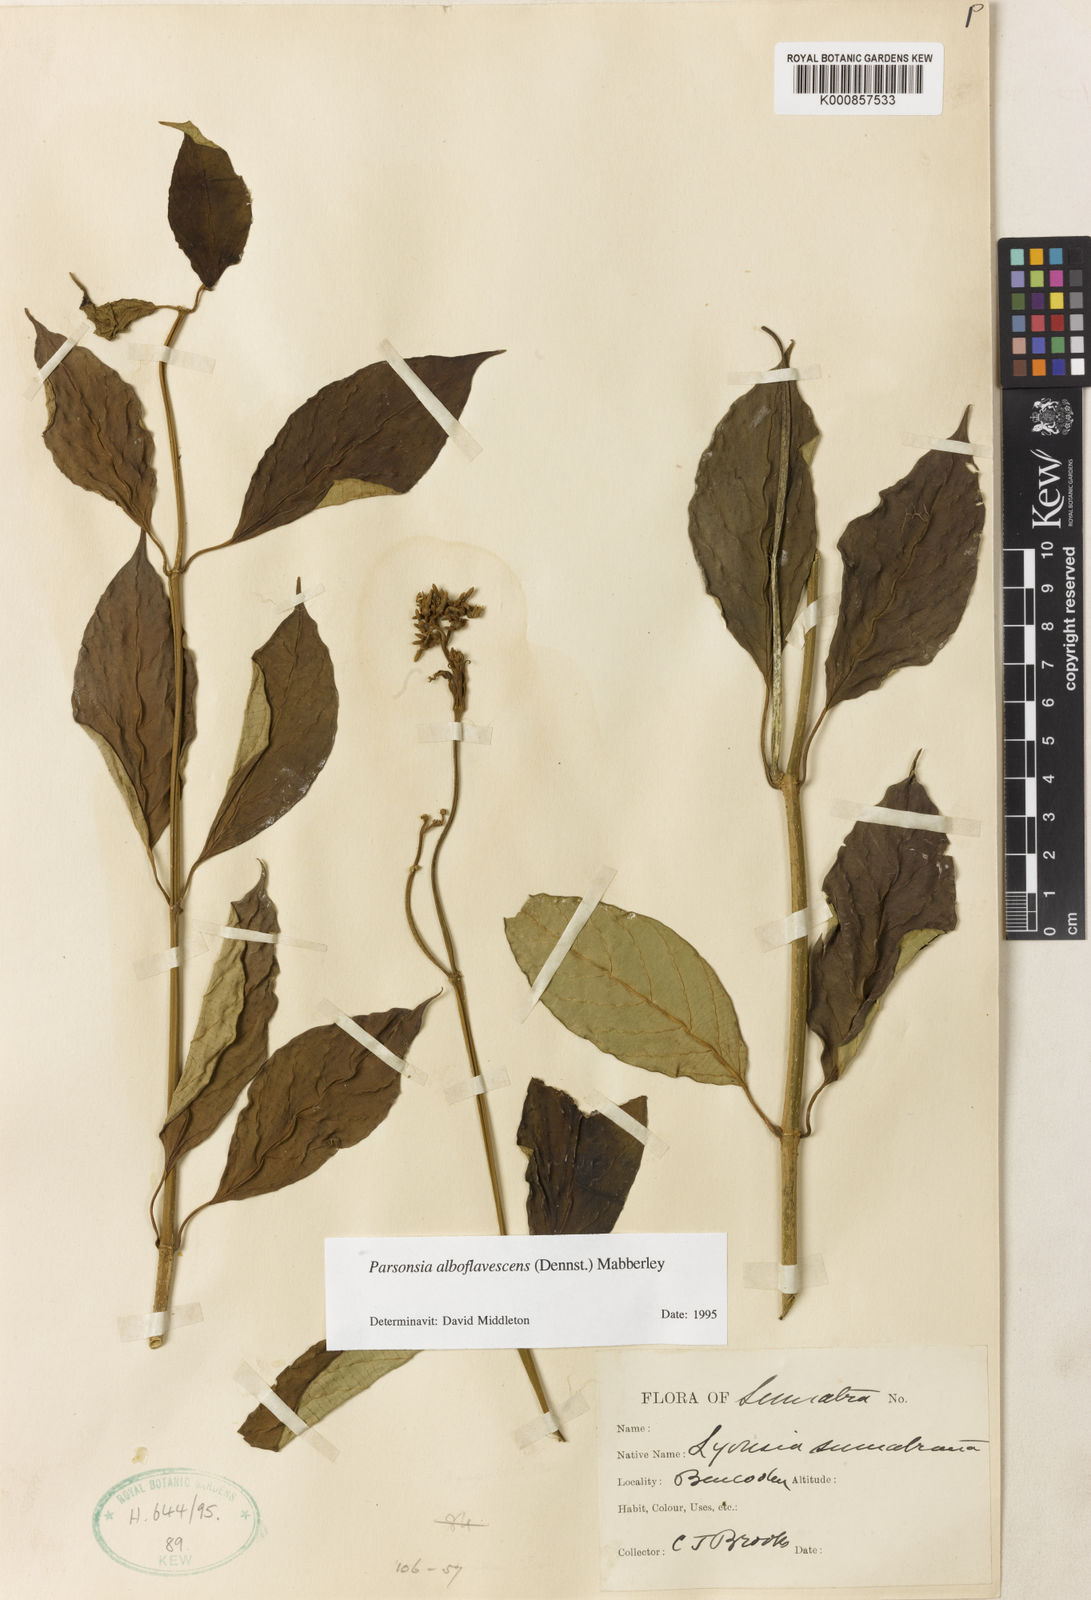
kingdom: Plantae
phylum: Tracheophyta
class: Magnoliopsida
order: Gentianales
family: Apocynaceae
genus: Parsonsia
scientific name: Parsonsia alboflavescens
